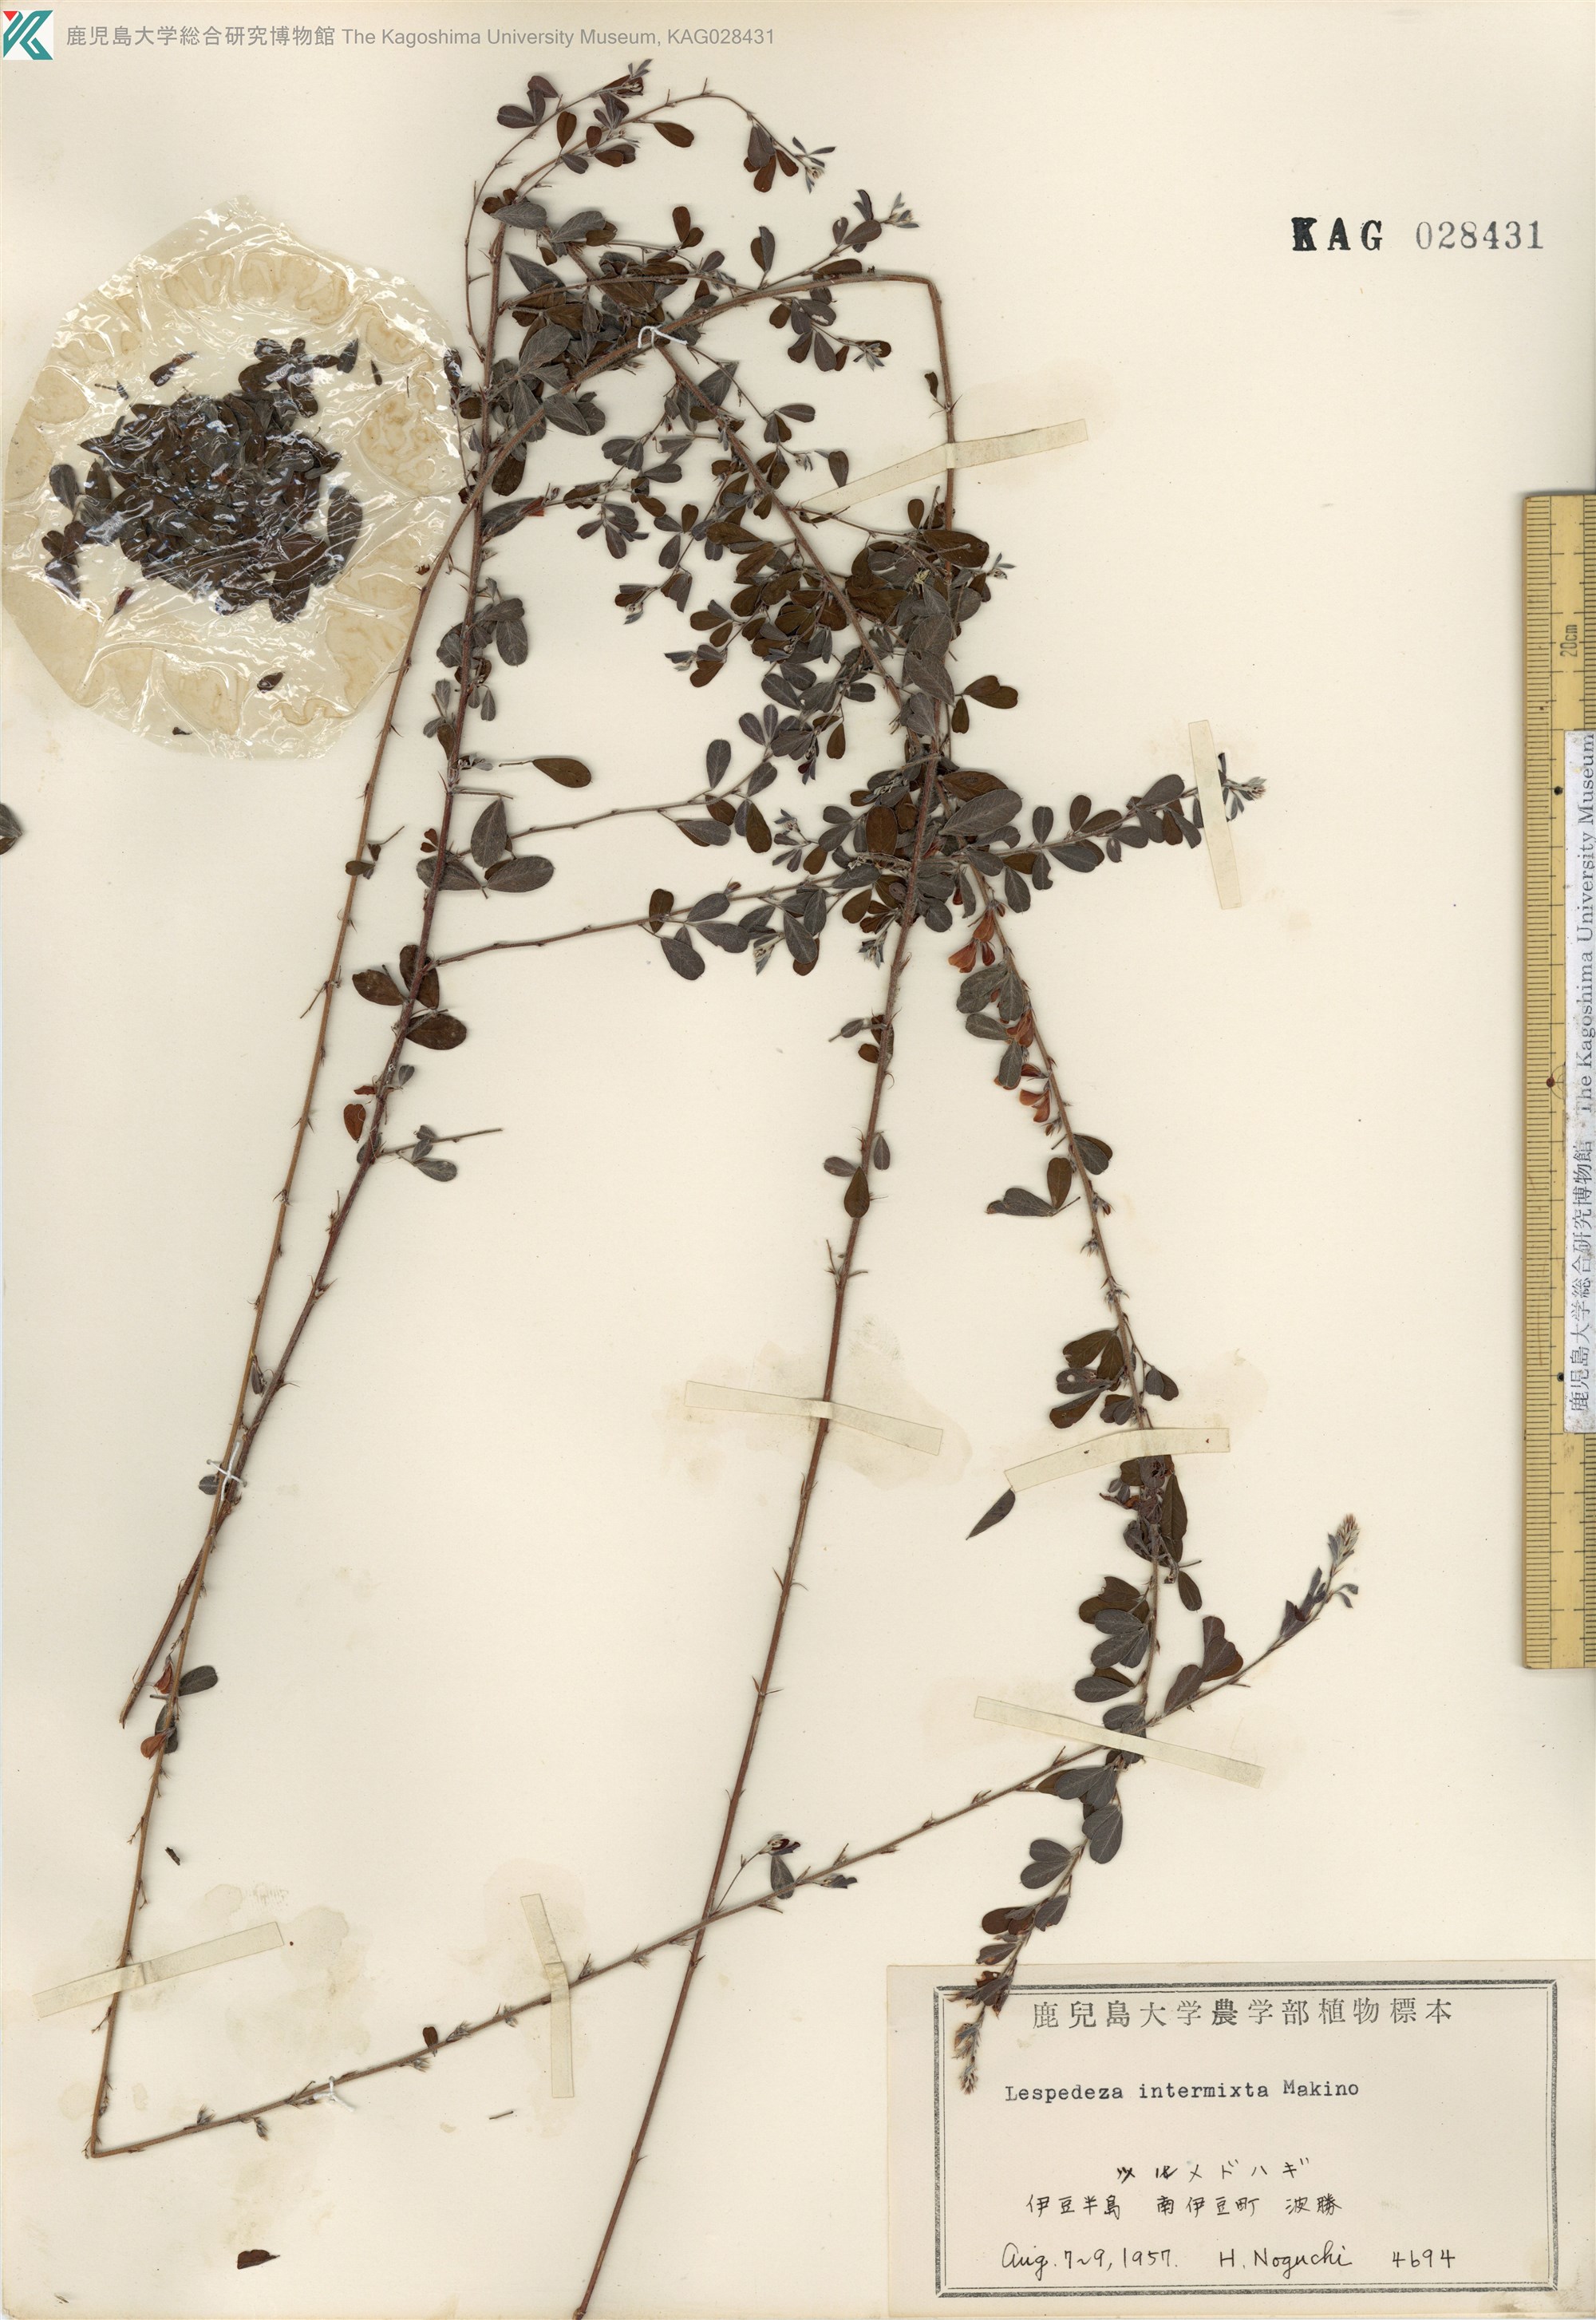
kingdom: Plantae
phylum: Tracheophyta
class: Magnoliopsida
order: Fabales
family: Fabaceae
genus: Lespedeza
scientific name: Lespedeza intermixta
